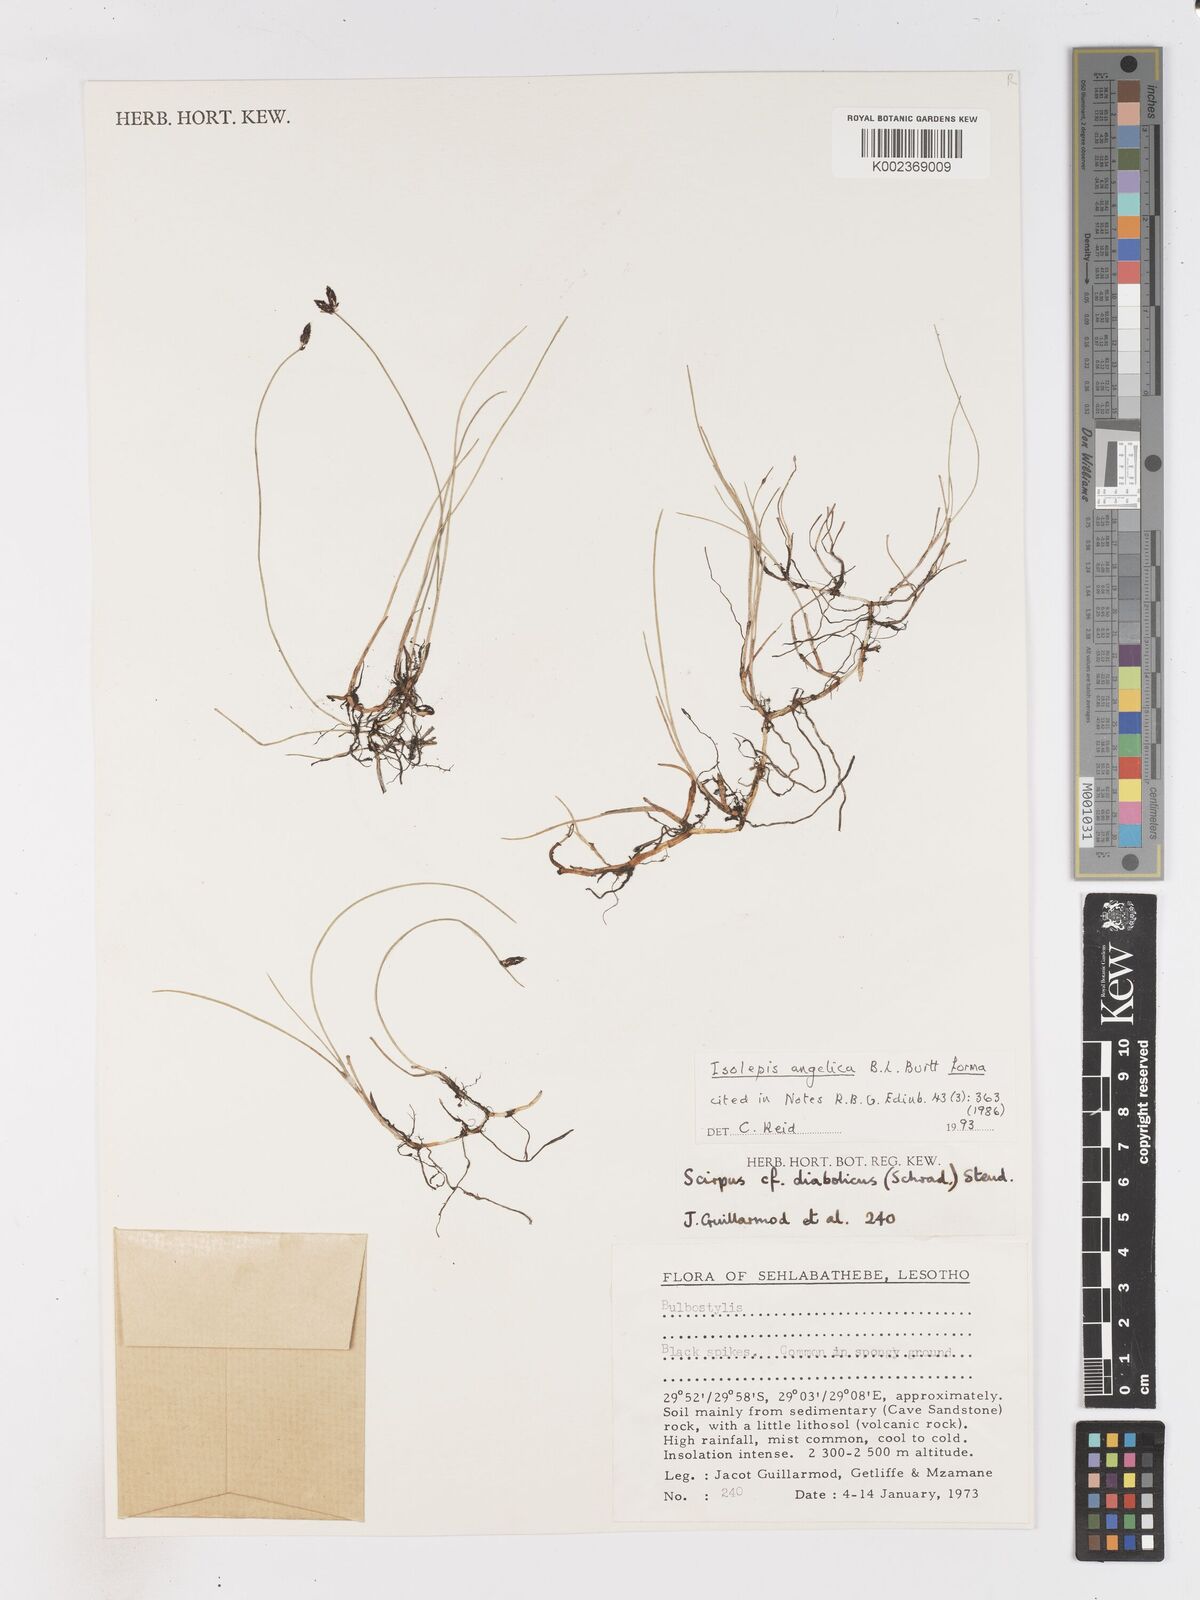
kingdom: Plantae
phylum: Tracheophyta
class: Liliopsida
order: Poales
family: Cyperaceae
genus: Isolepis
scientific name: Isolepis angelica
